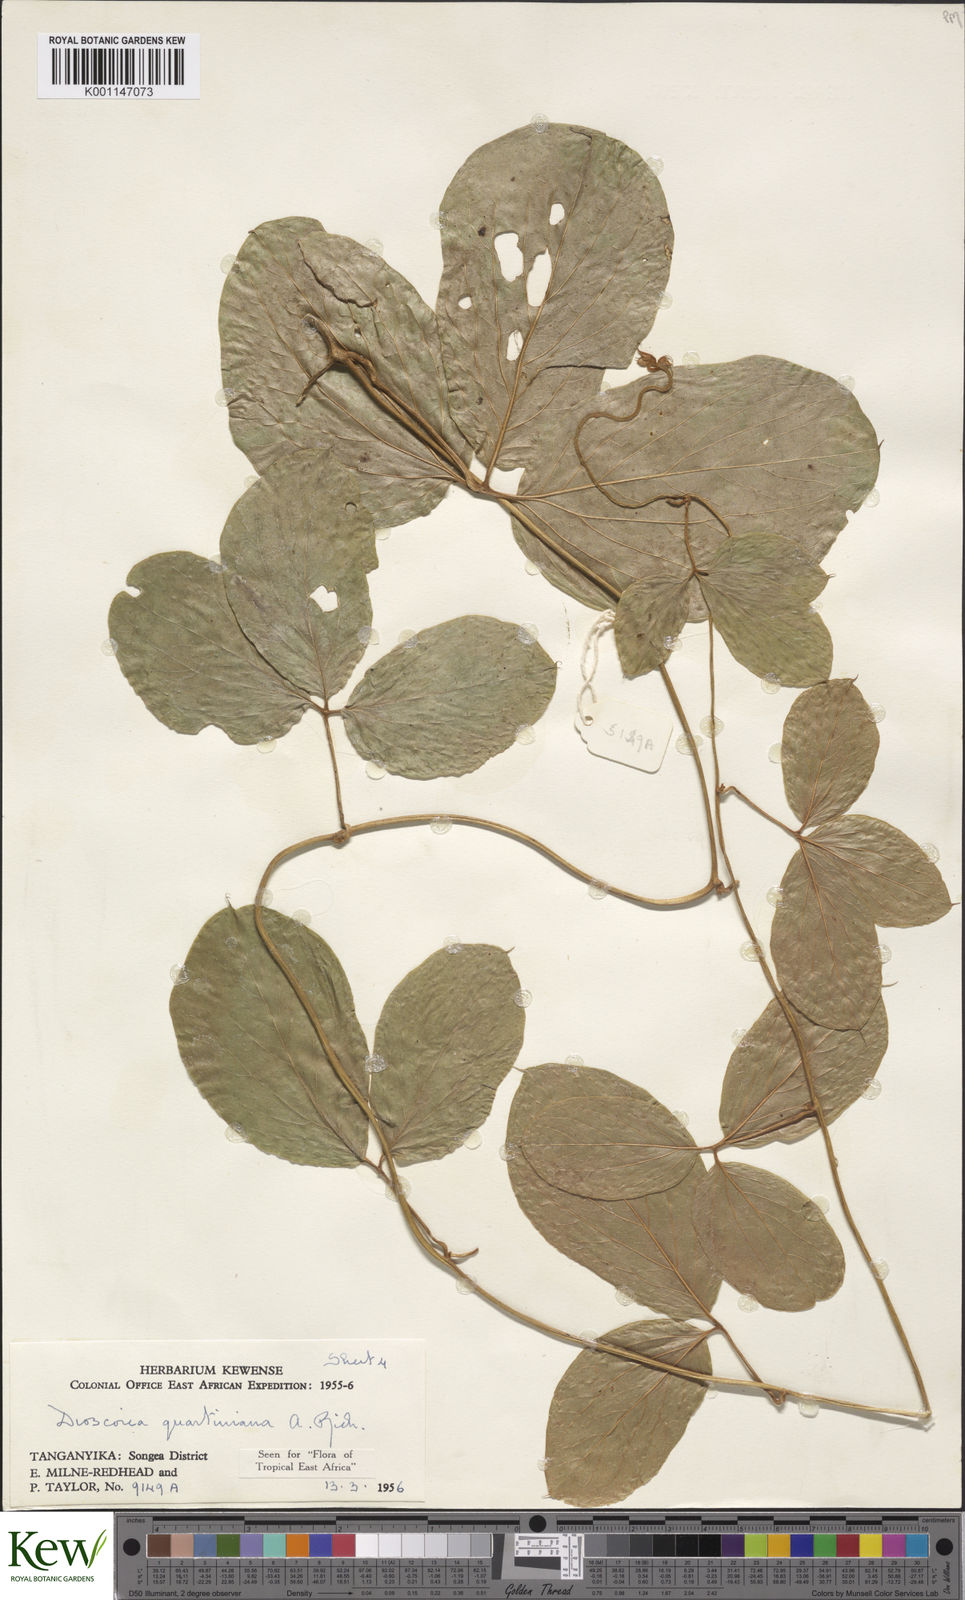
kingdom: Plantae
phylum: Tracheophyta
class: Liliopsida
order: Dioscoreales
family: Dioscoreaceae
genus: Dioscorea
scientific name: Dioscorea quartiniana
